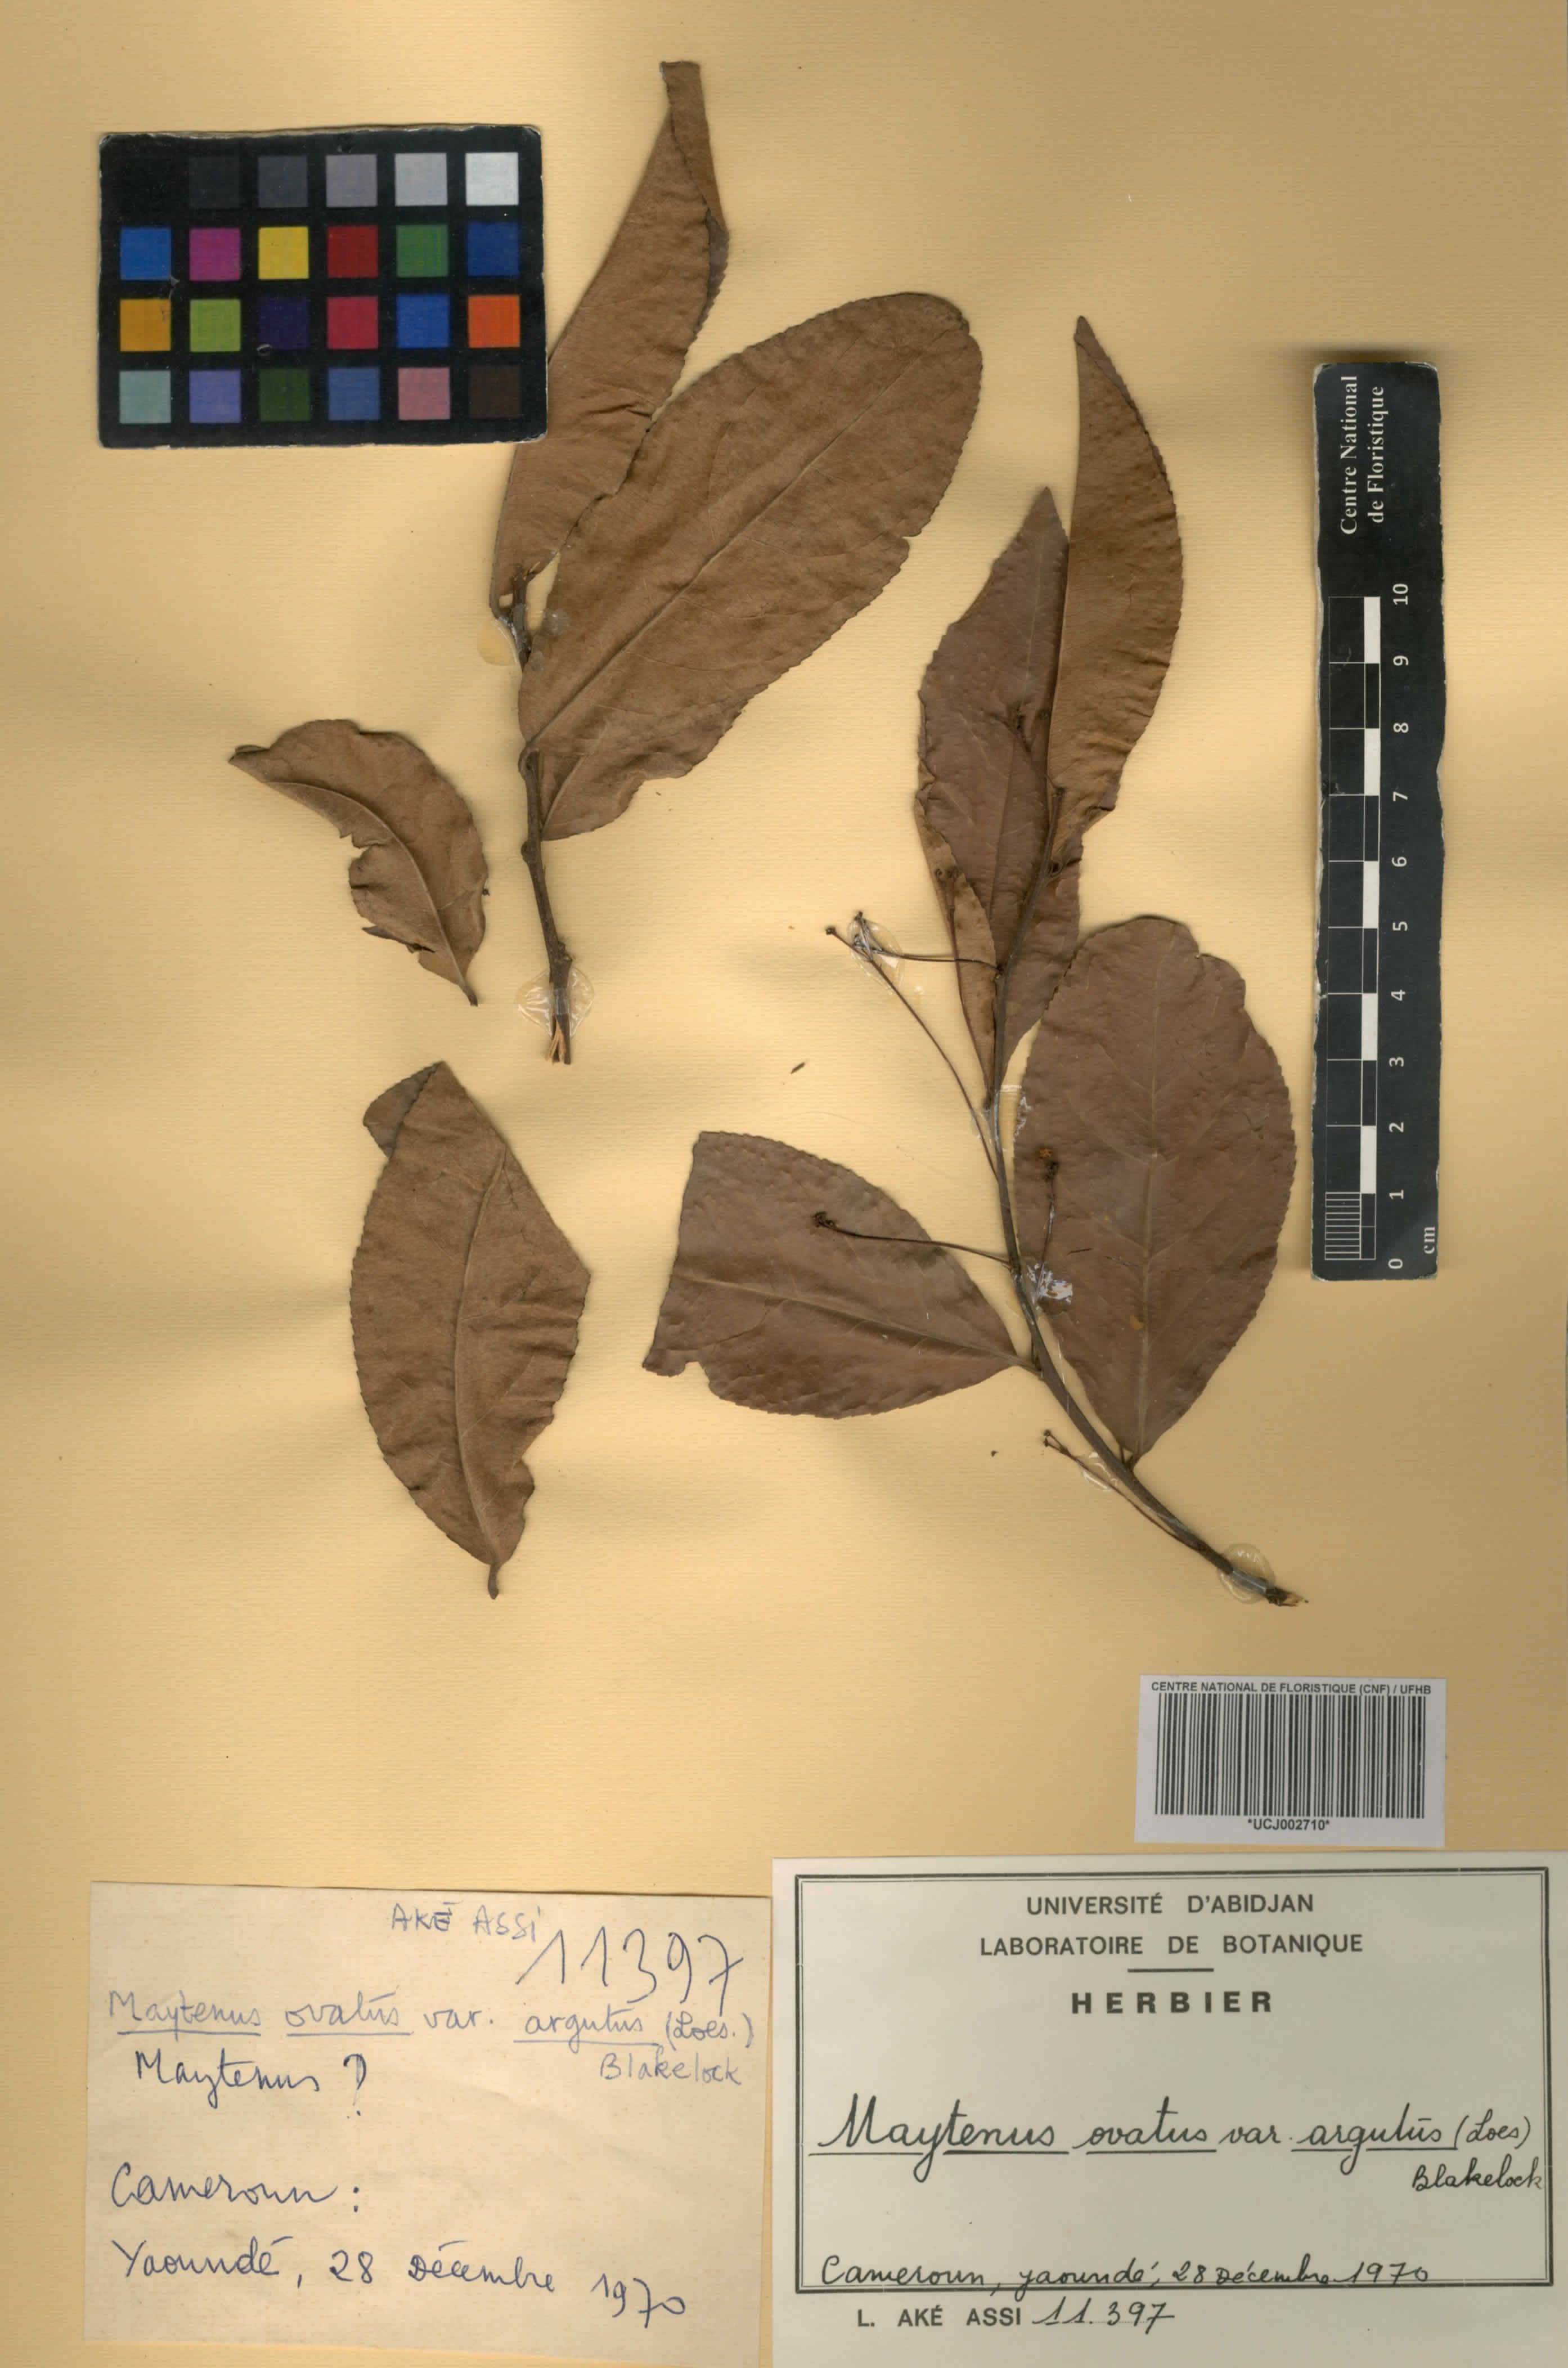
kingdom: Plantae
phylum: Tracheophyta
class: Magnoliopsida
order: Celastrales
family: Celastraceae
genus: Gymnosporia
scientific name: Gymnosporia serrata
